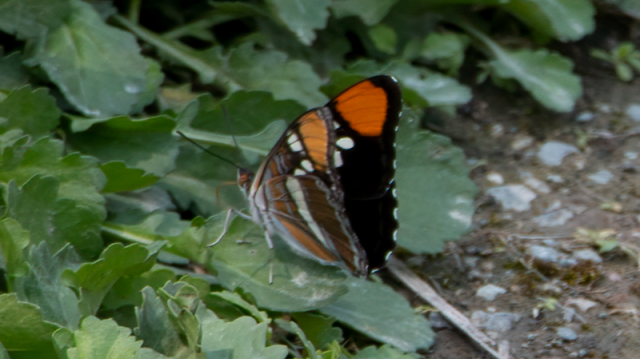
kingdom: Animalia
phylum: Arthropoda
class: Insecta
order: Lepidoptera
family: Nymphalidae
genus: Limenitis
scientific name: Limenitis bredowii
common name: California Sister
